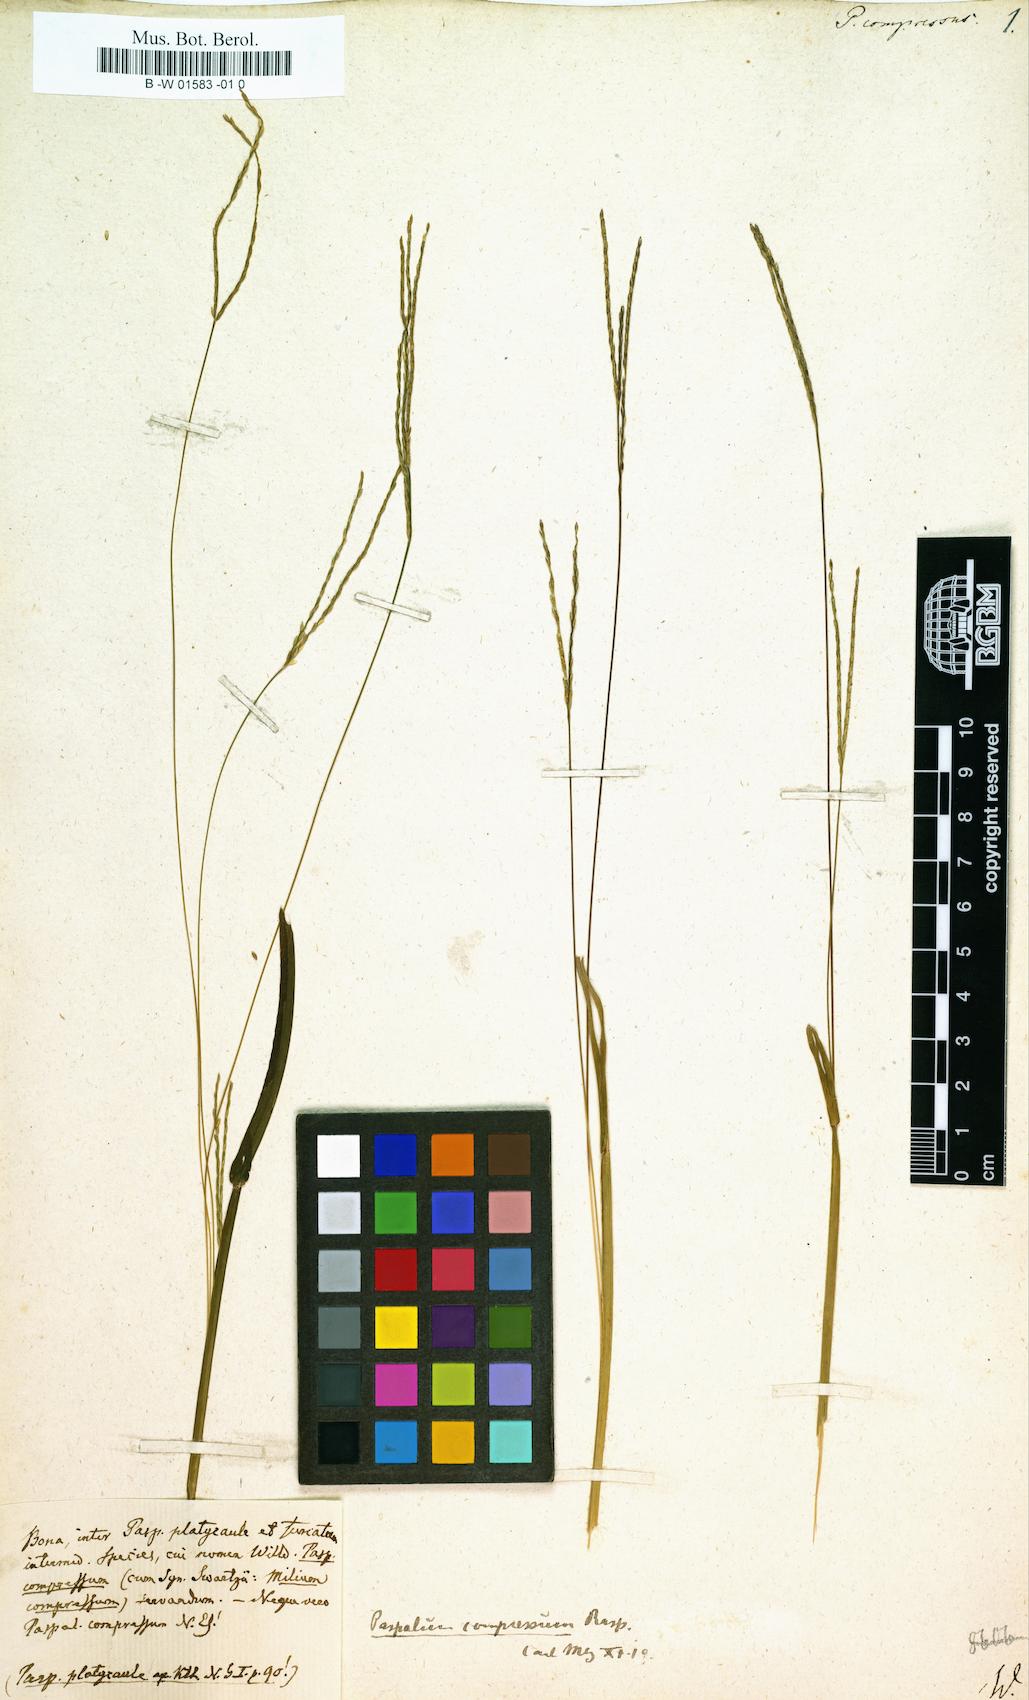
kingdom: Plantae
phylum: Tracheophyta
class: Liliopsida
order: Poales
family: Poaceae
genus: Paspalus
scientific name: Paspalus
